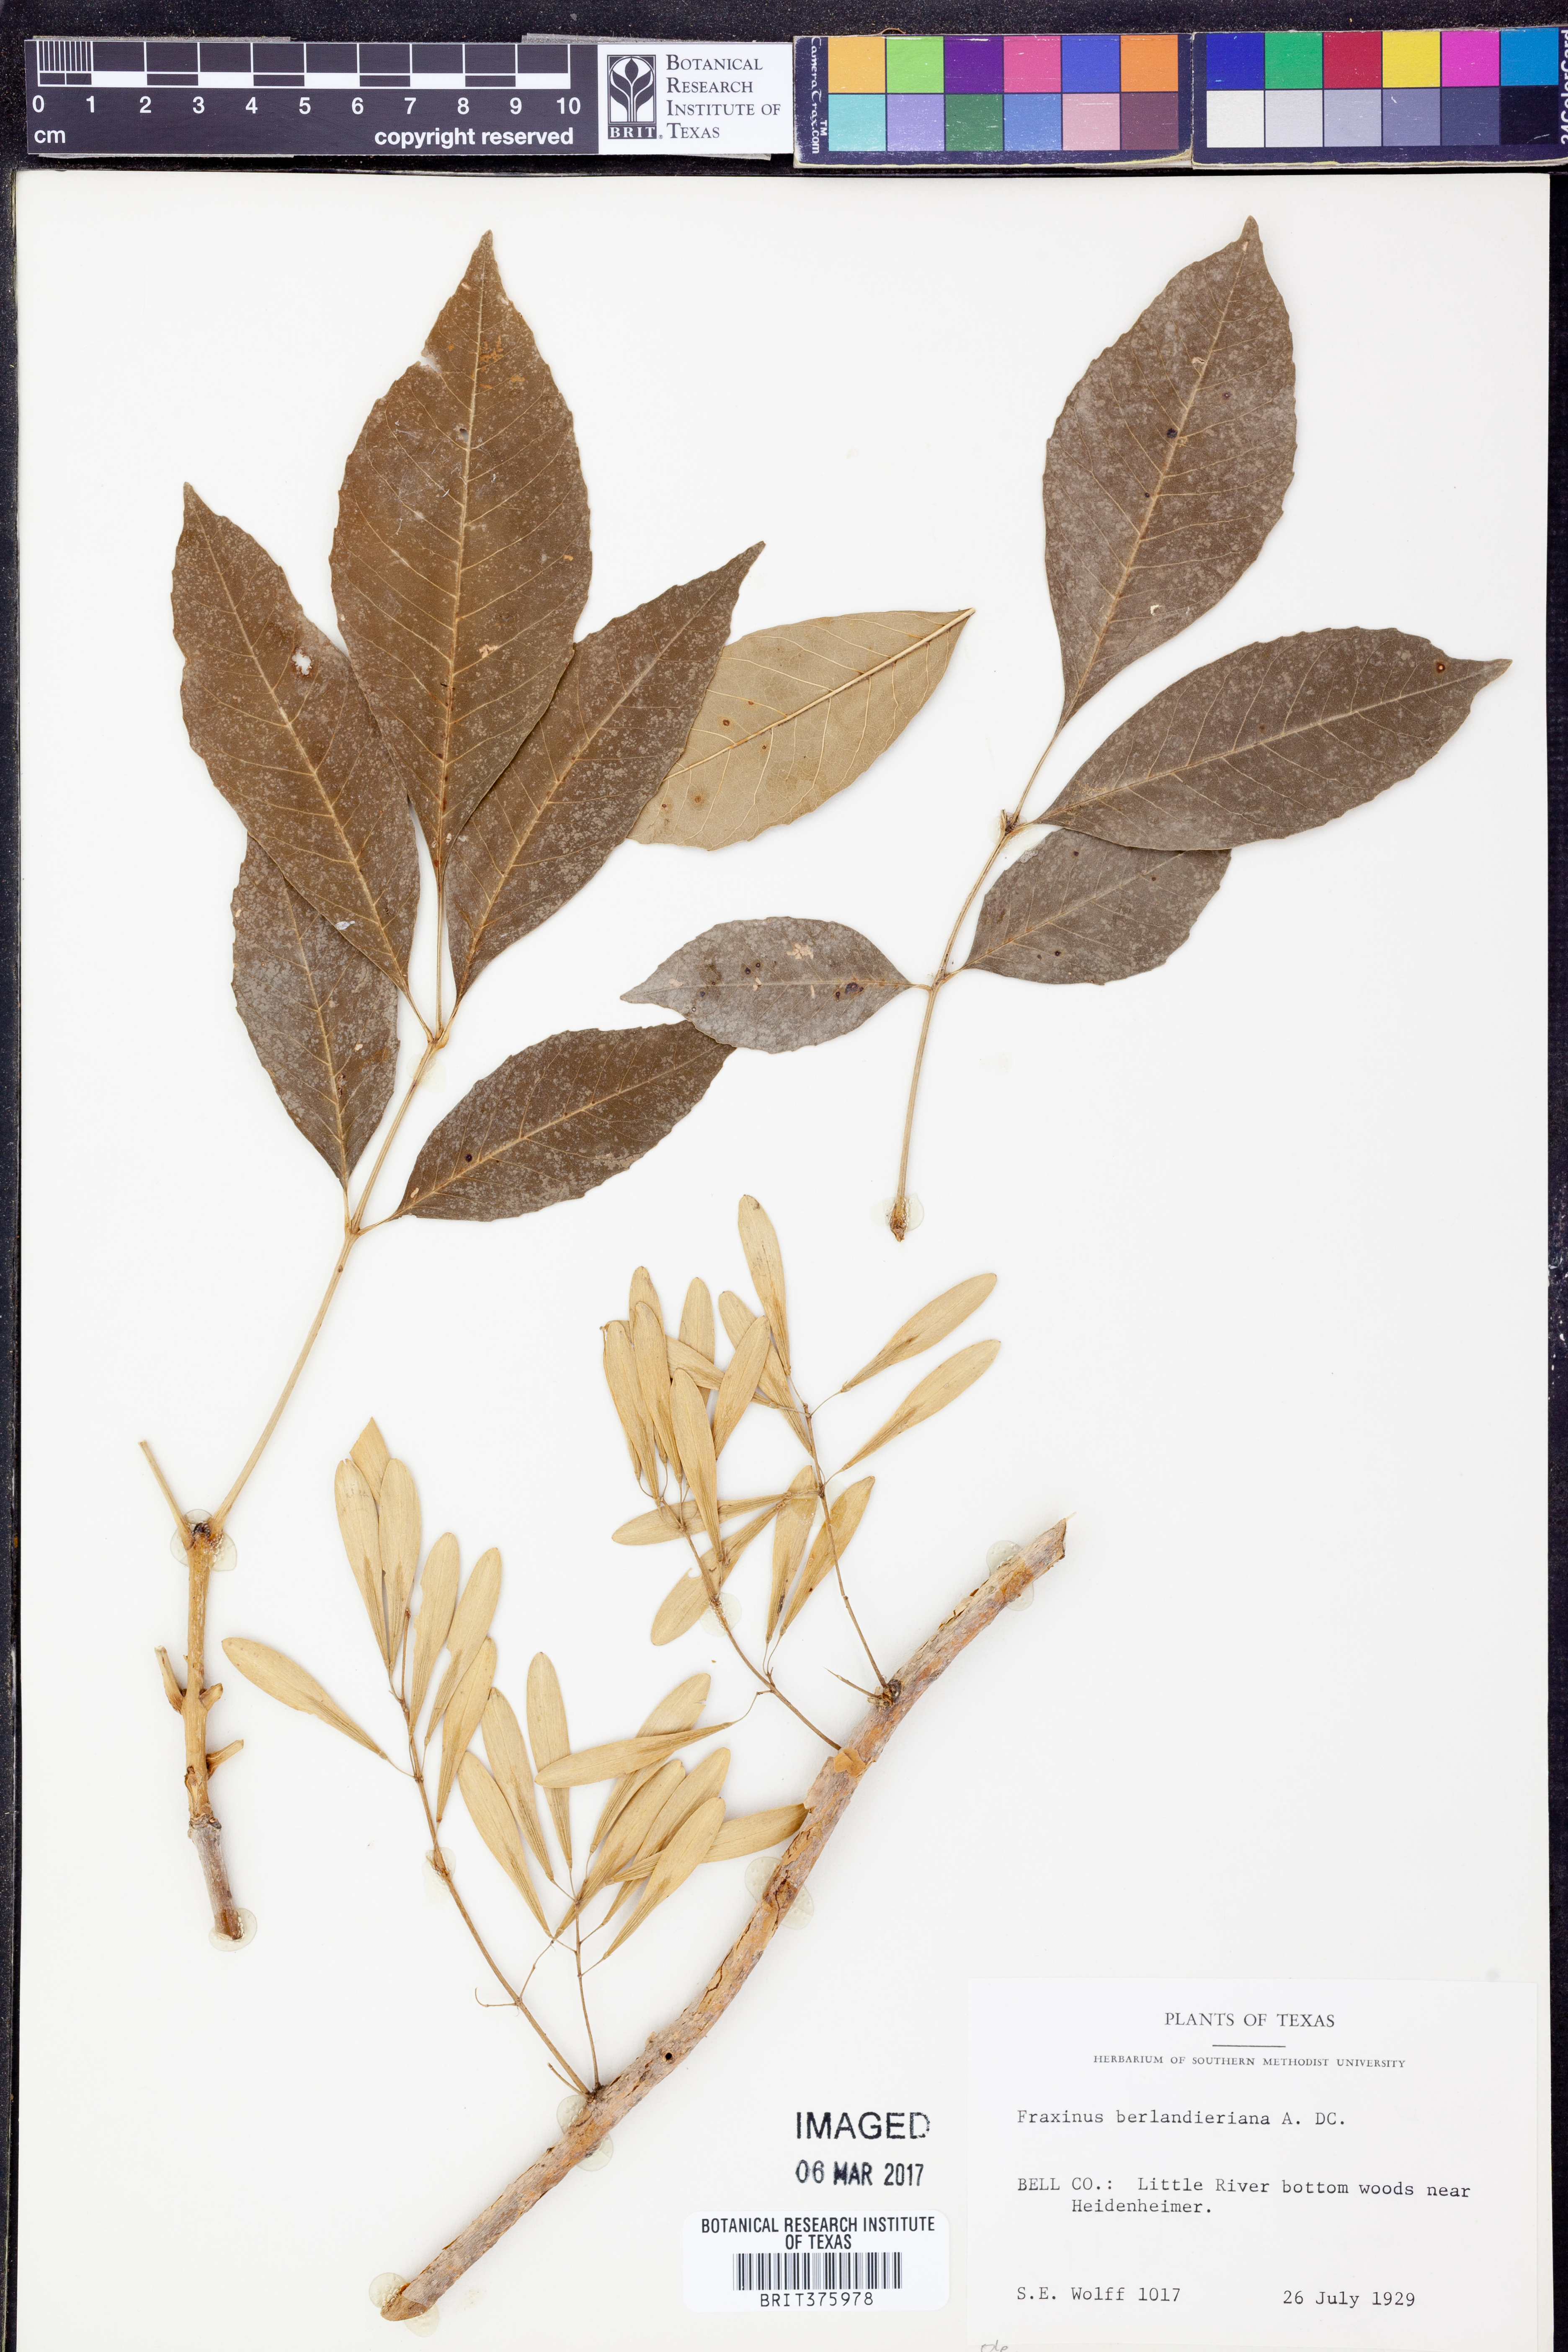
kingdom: Plantae
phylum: Tracheophyta
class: Magnoliopsida
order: Lamiales
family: Oleaceae
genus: Fraxinus
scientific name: Fraxinus berlandieriana
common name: Berlandier ash
